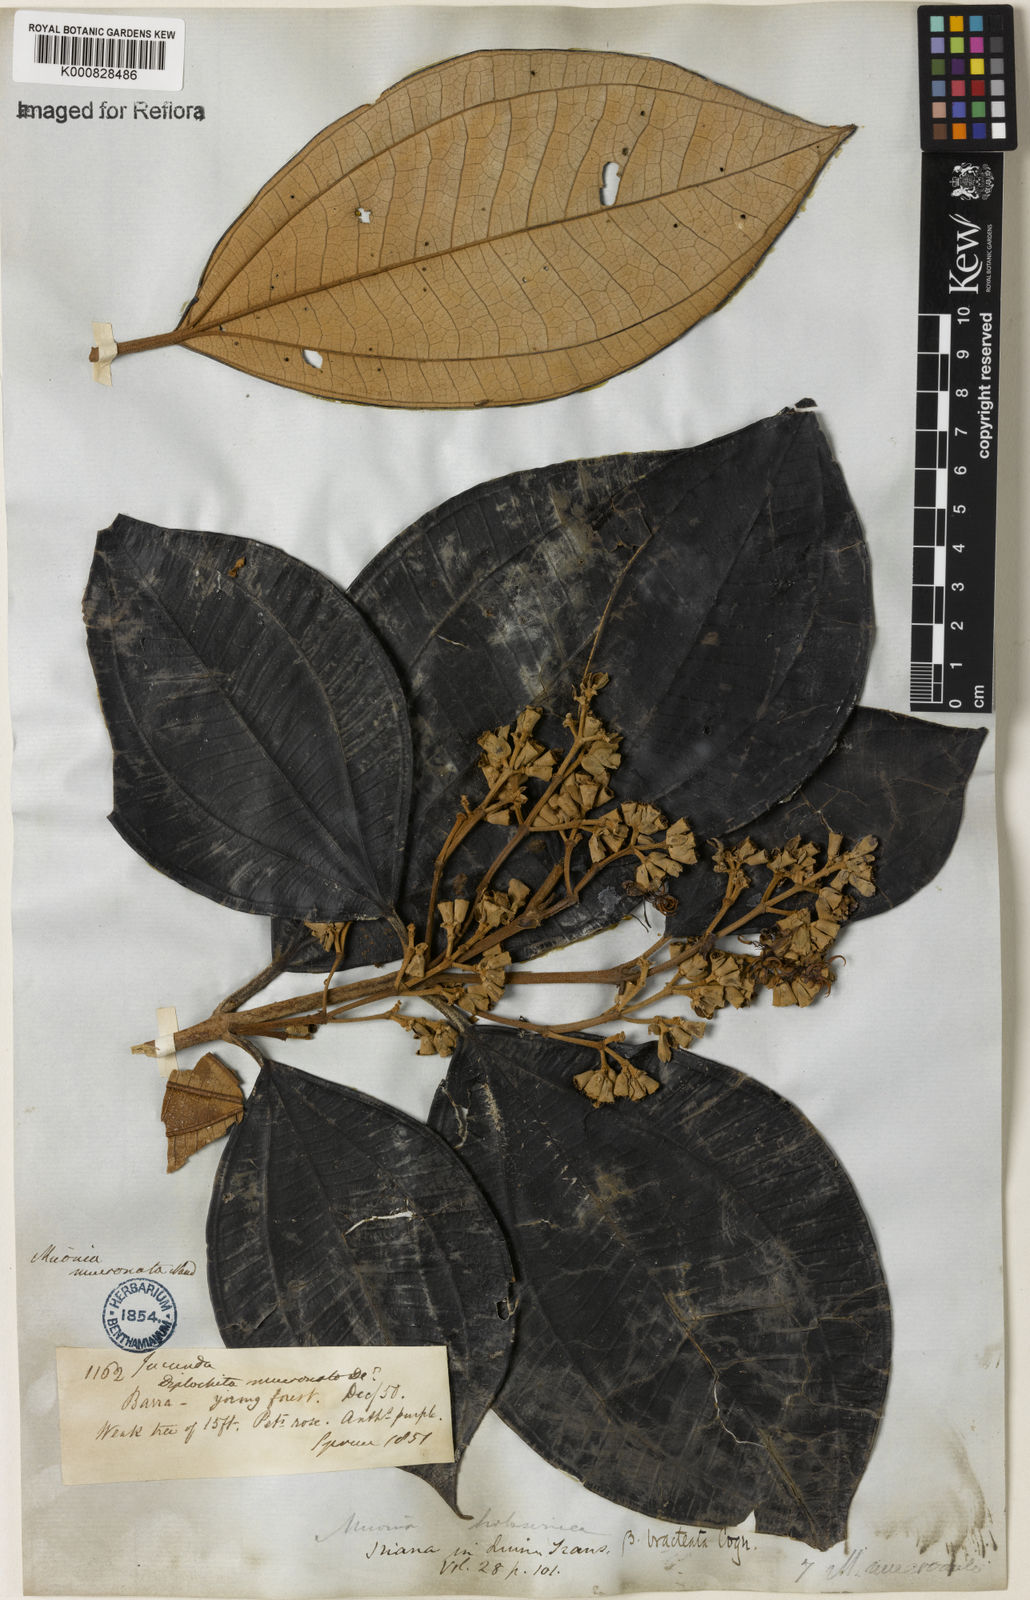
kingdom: Plantae
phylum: Tracheophyta
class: Magnoliopsida
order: Myrtales
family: Melastomataceae
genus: Miconia
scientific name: Miconia holosericea
